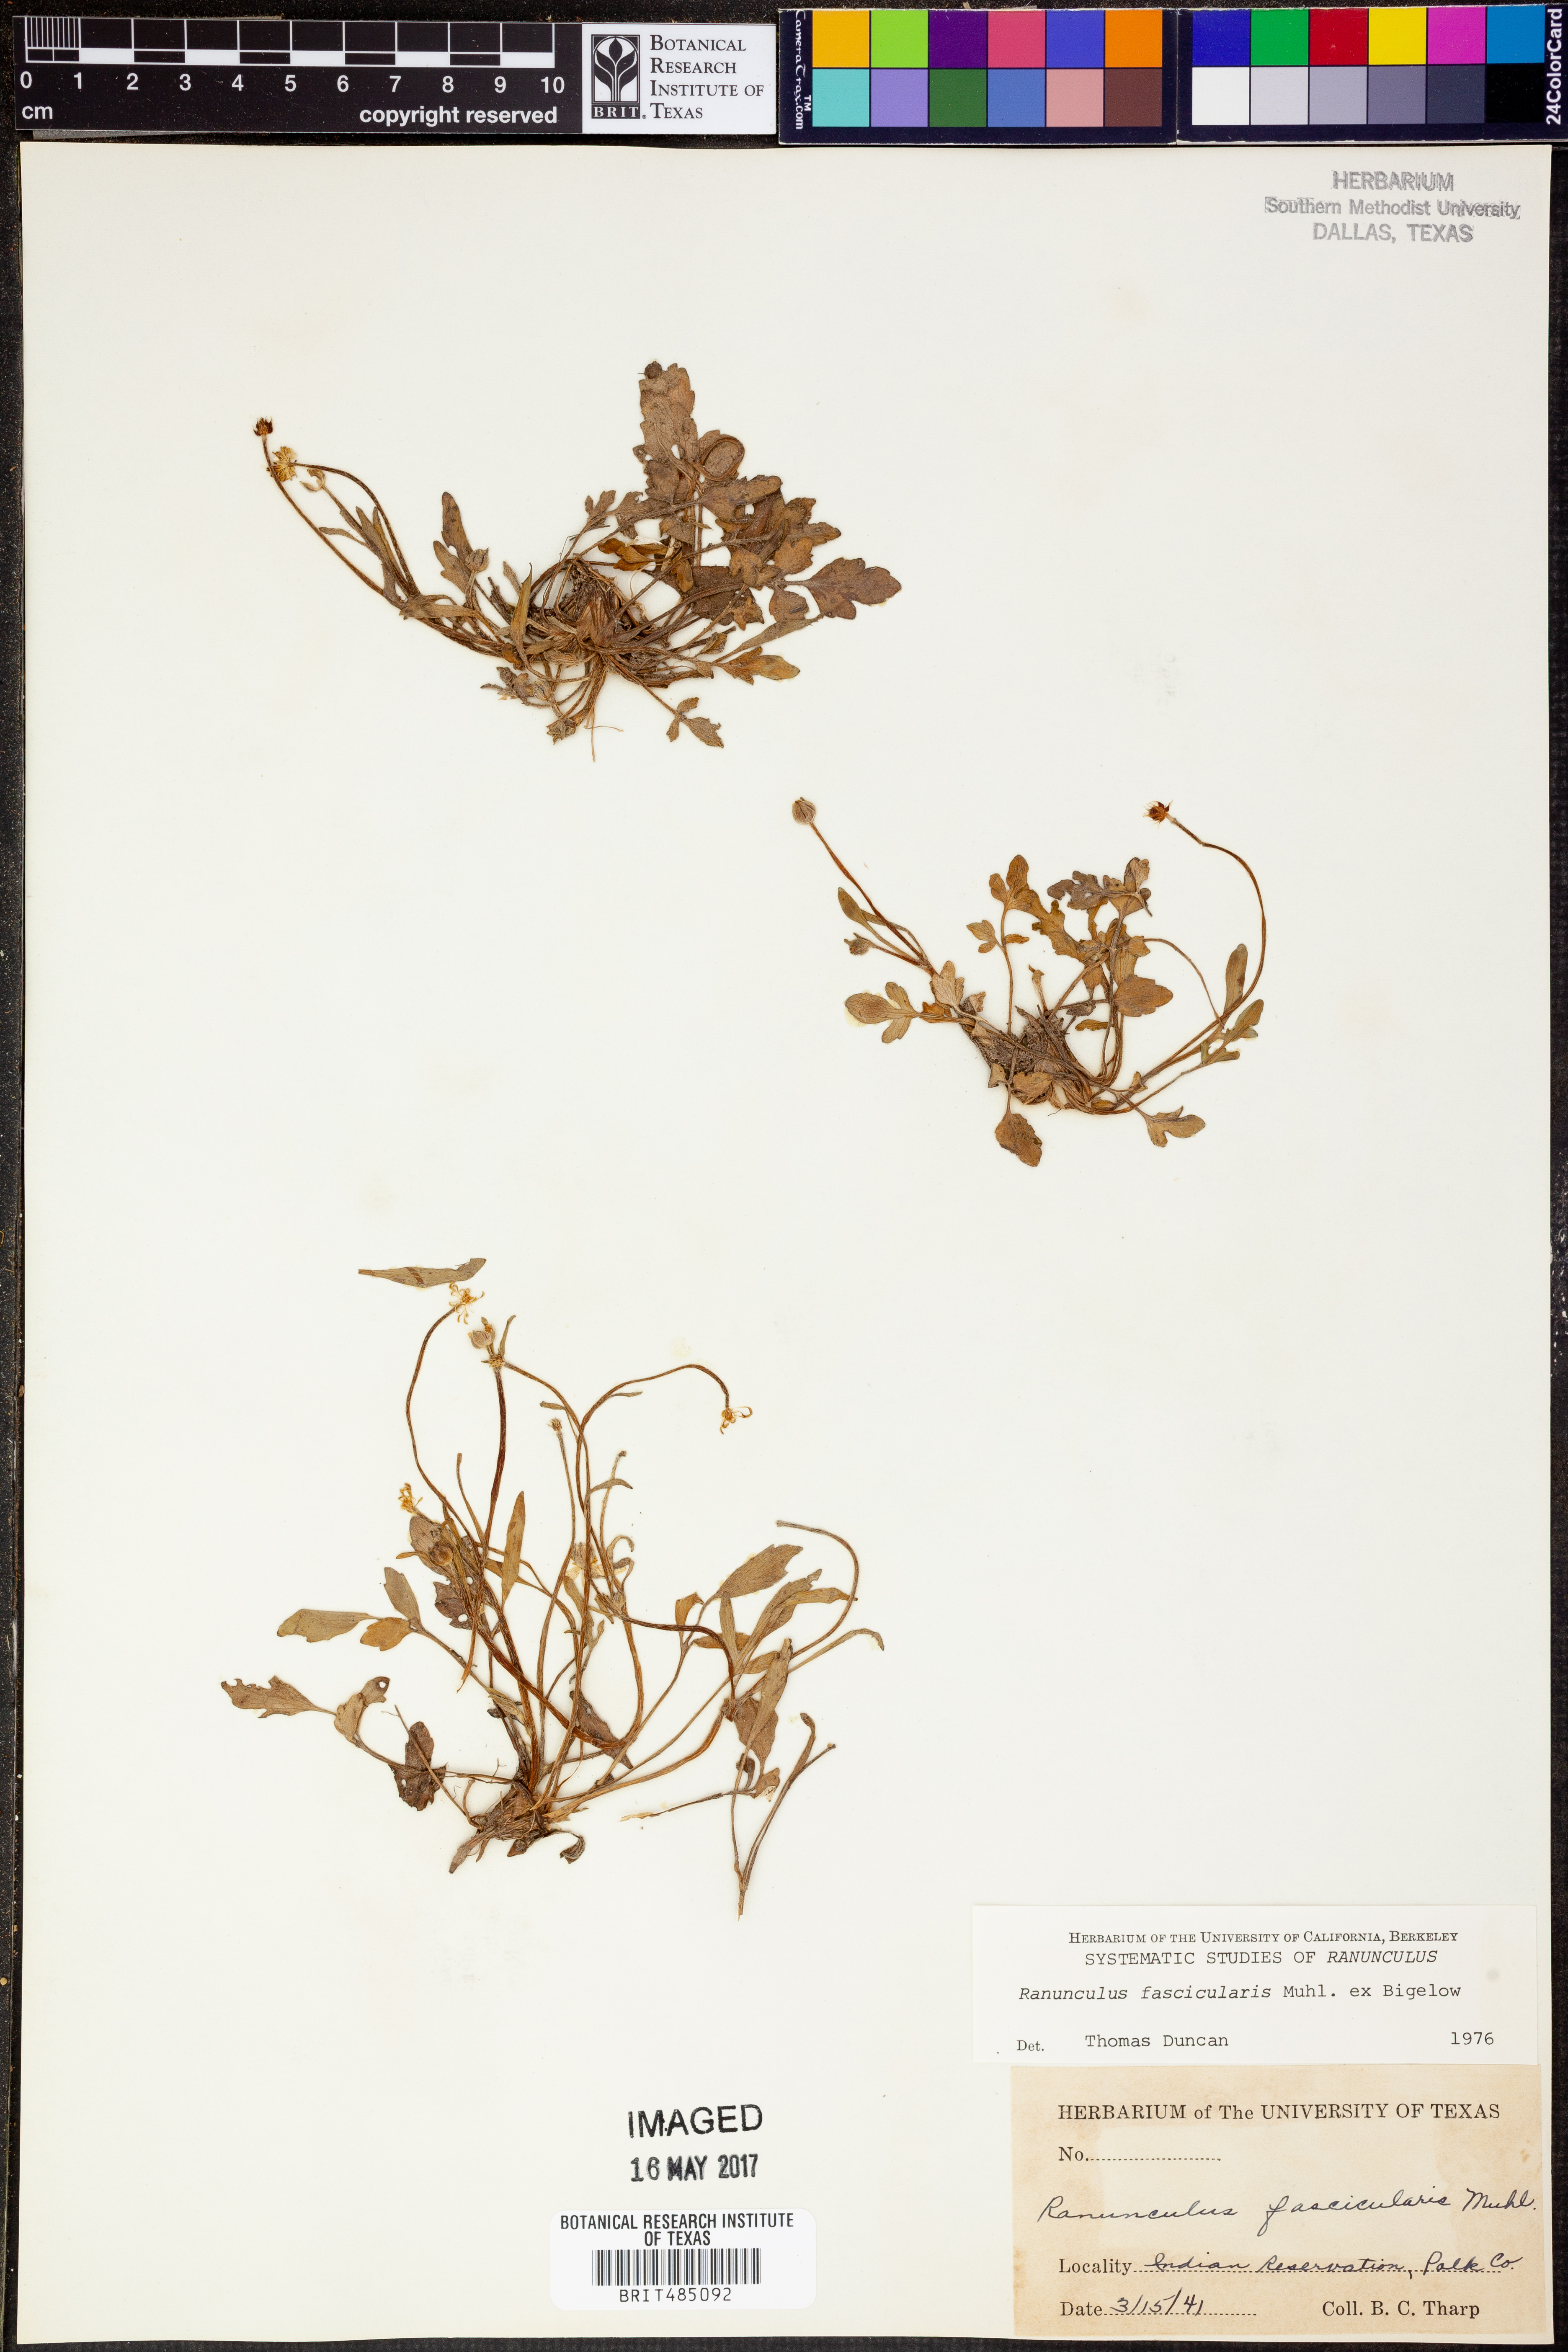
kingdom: Plantae
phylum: Tracheophyta
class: Magnoliopsida
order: Ranunculales
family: Ranunculaceae
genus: Ranunculus
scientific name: Ranunculus fascicularis
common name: Early buttercup
